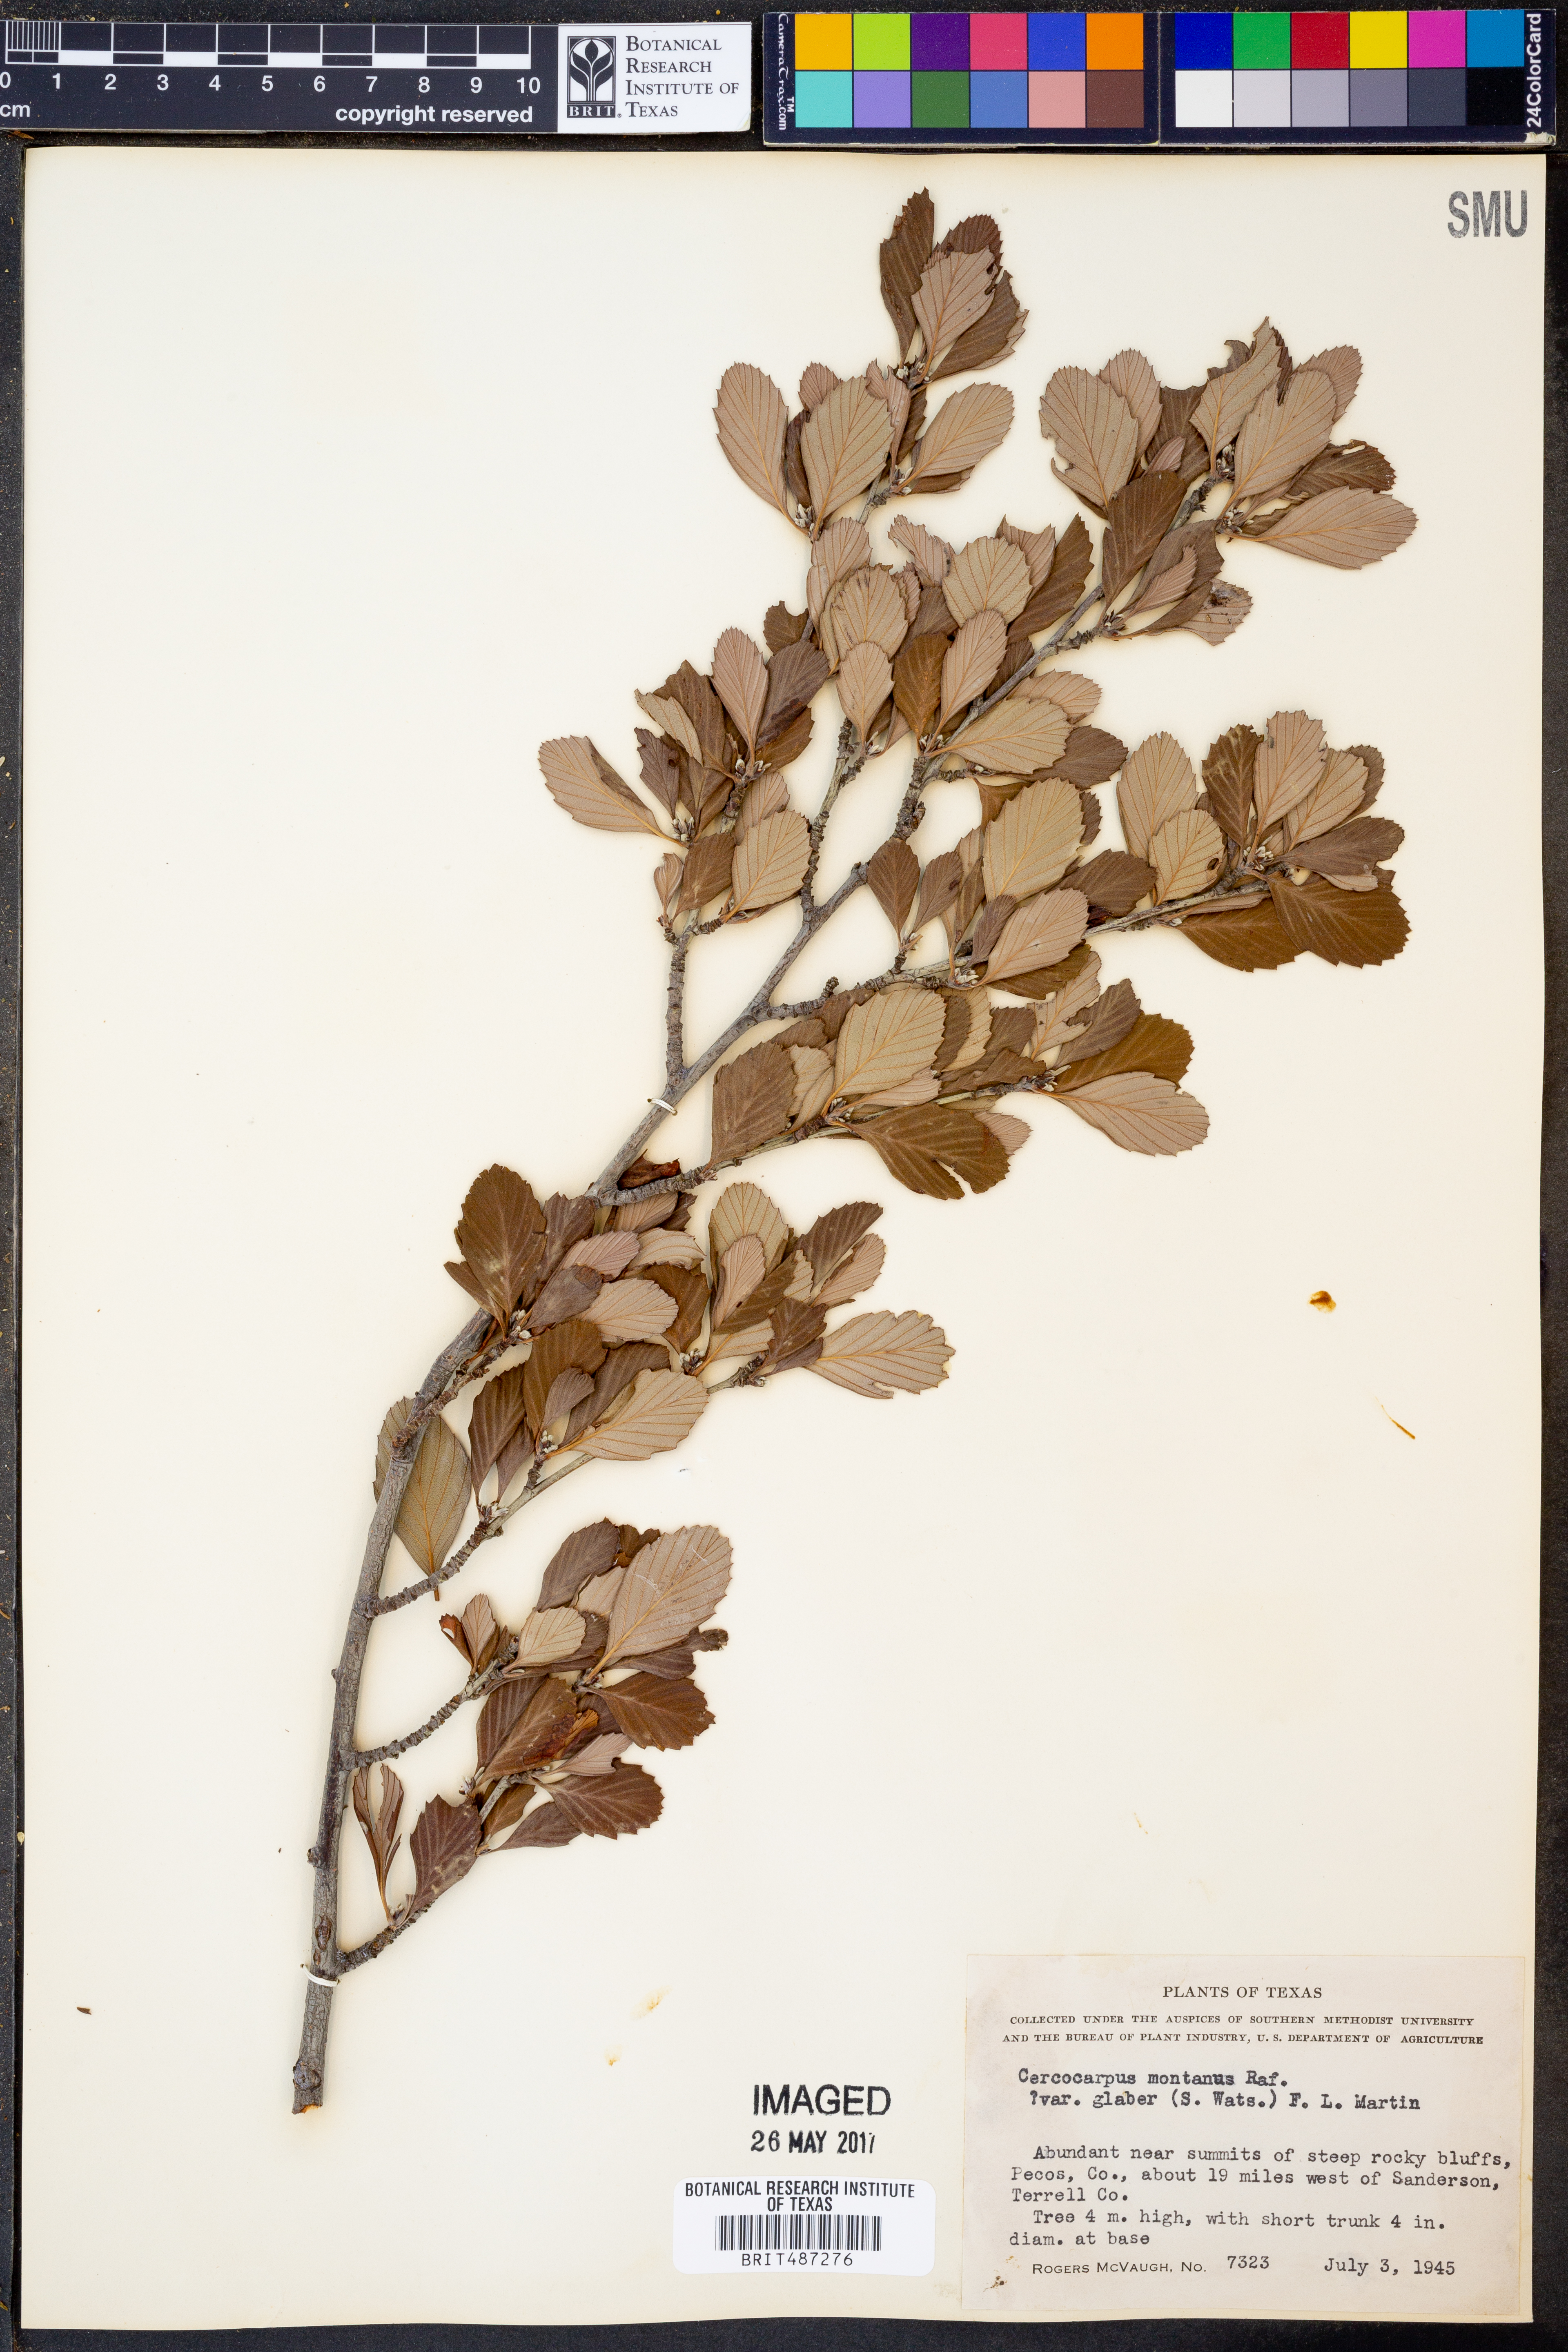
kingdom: Plantae
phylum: Tracheophyta
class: Magnoliopsida
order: Rosales
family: Rosaceae
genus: Cercocarpus
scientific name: Cercocarpus betuloides
